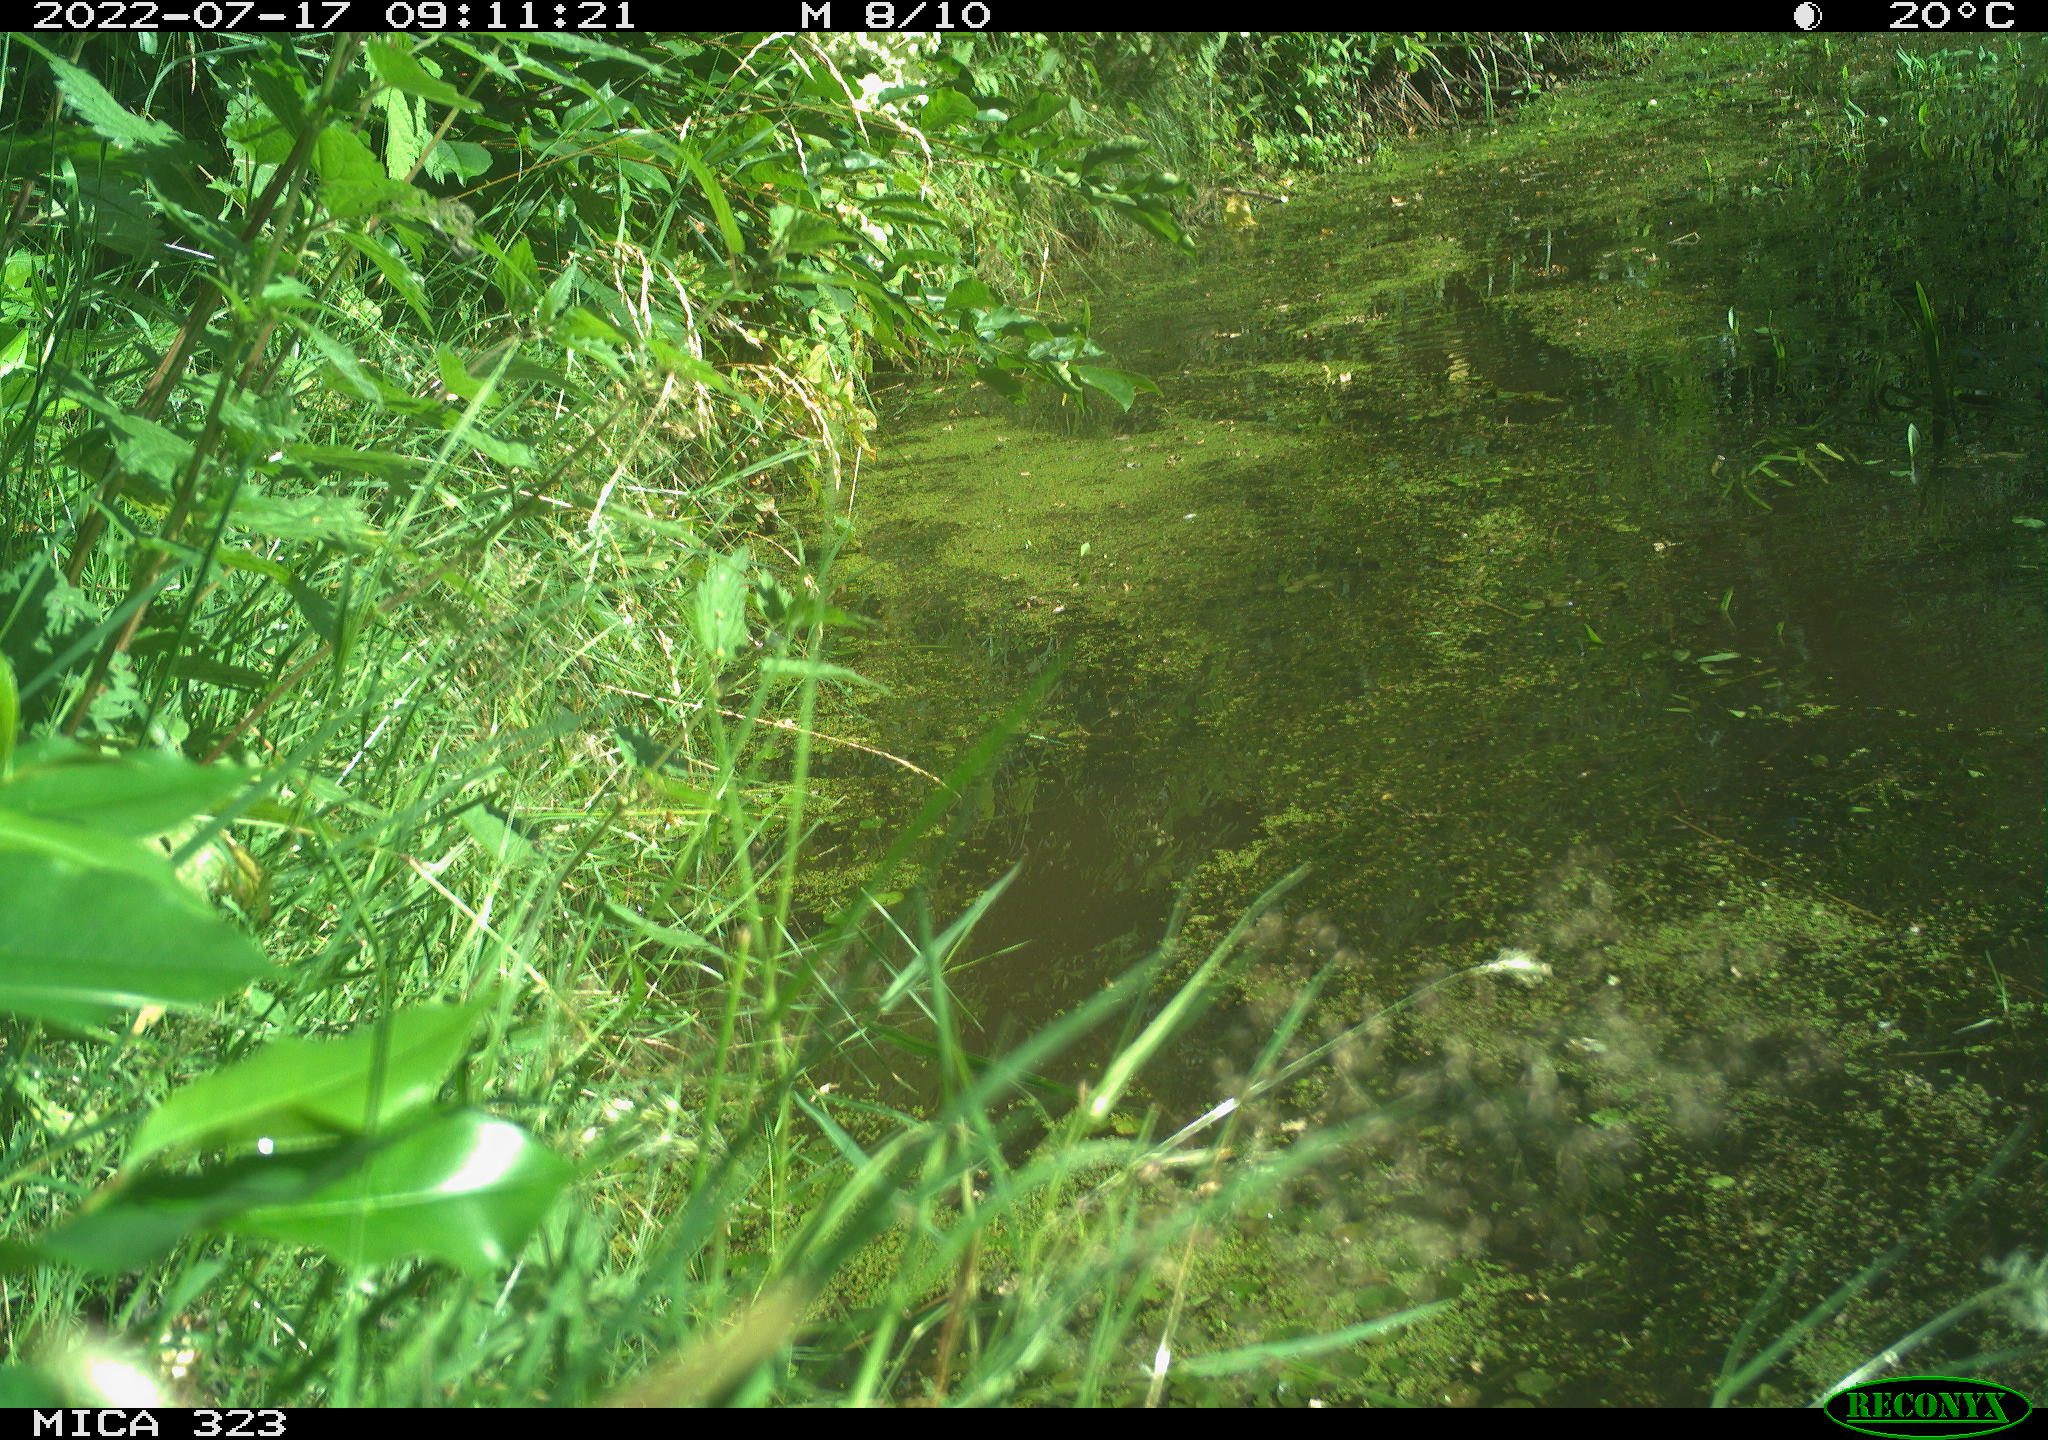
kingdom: Animalia
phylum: Chordata
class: Aves
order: Anseriformes
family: Anatidae
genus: Anas
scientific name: Anas platyrhynchos
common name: Mallard
